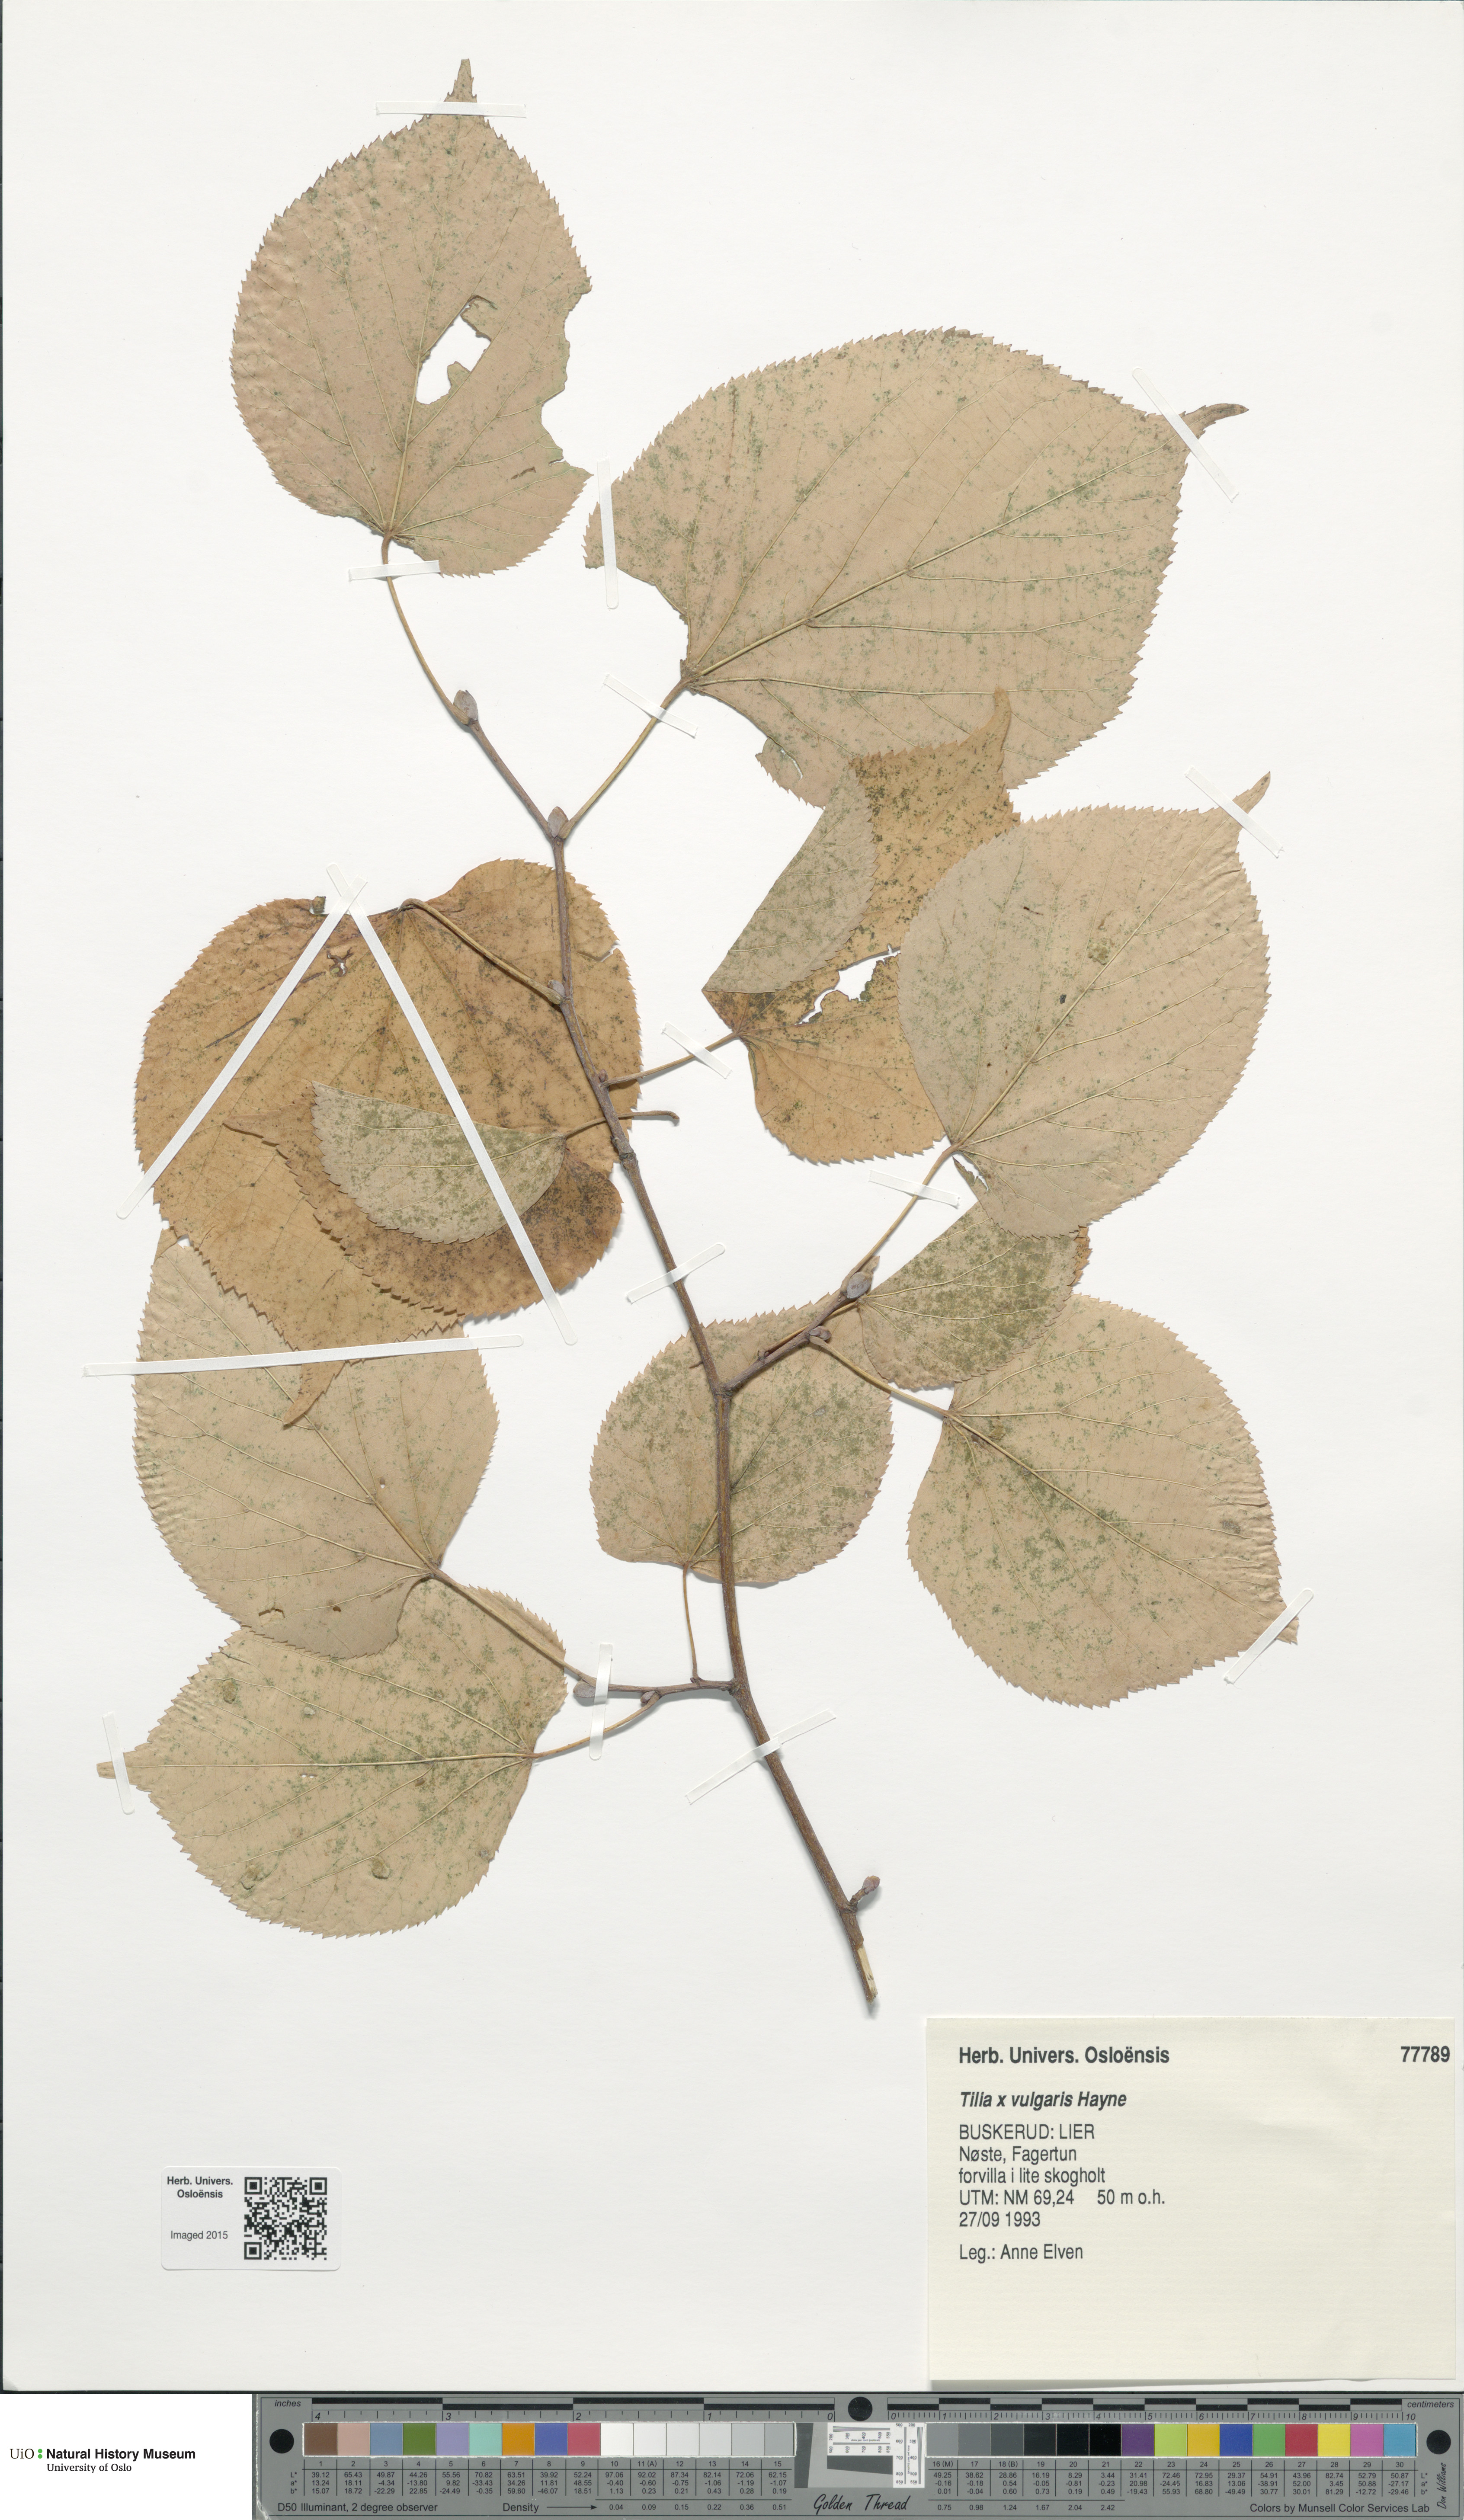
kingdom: Plantae
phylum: Tracheophyta
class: Magnoliopsida
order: Malvales
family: Malvaceae
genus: Tilia
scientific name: Tilia europaea
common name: European linden
